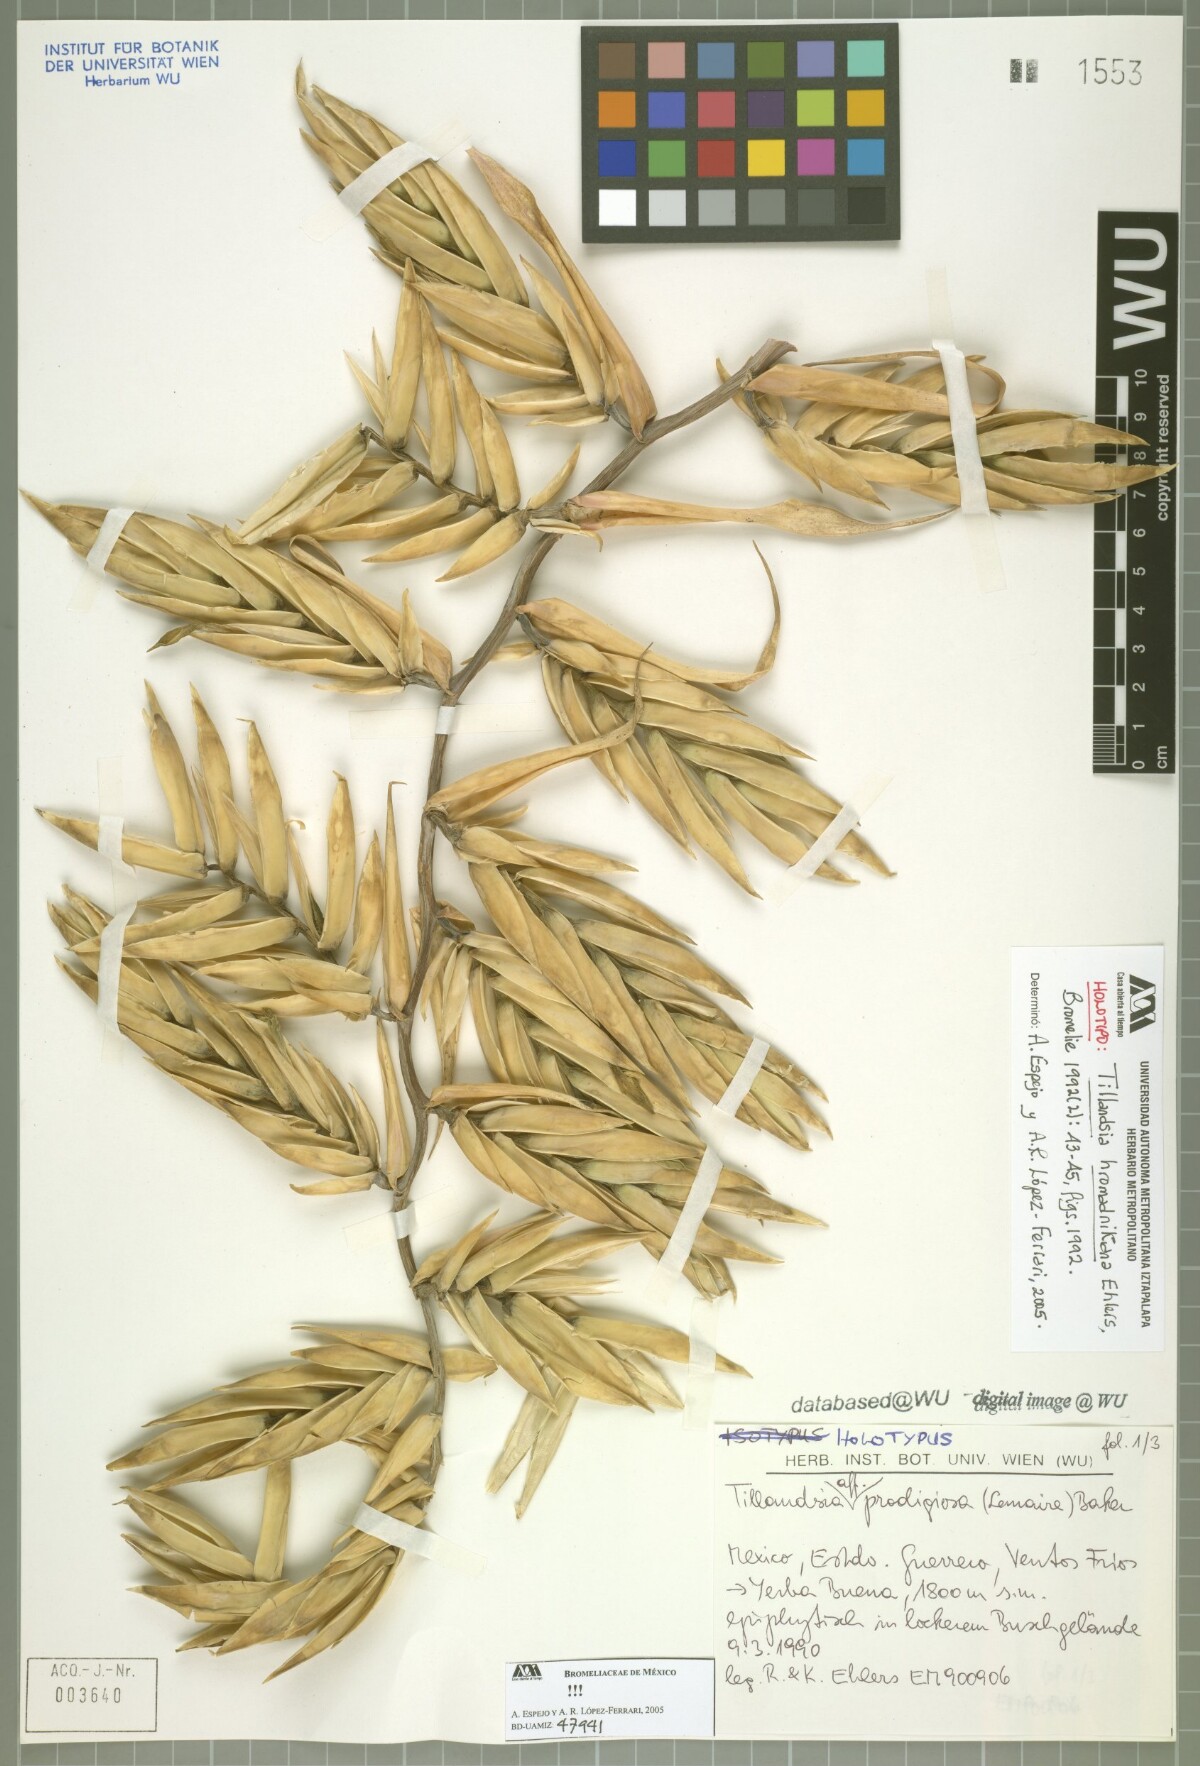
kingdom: Plantae
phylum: Tracheophyta
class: Liliopsida
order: Poales
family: Bromeliaceae
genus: Tillandsia
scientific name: Tillandsia prodigiosa
